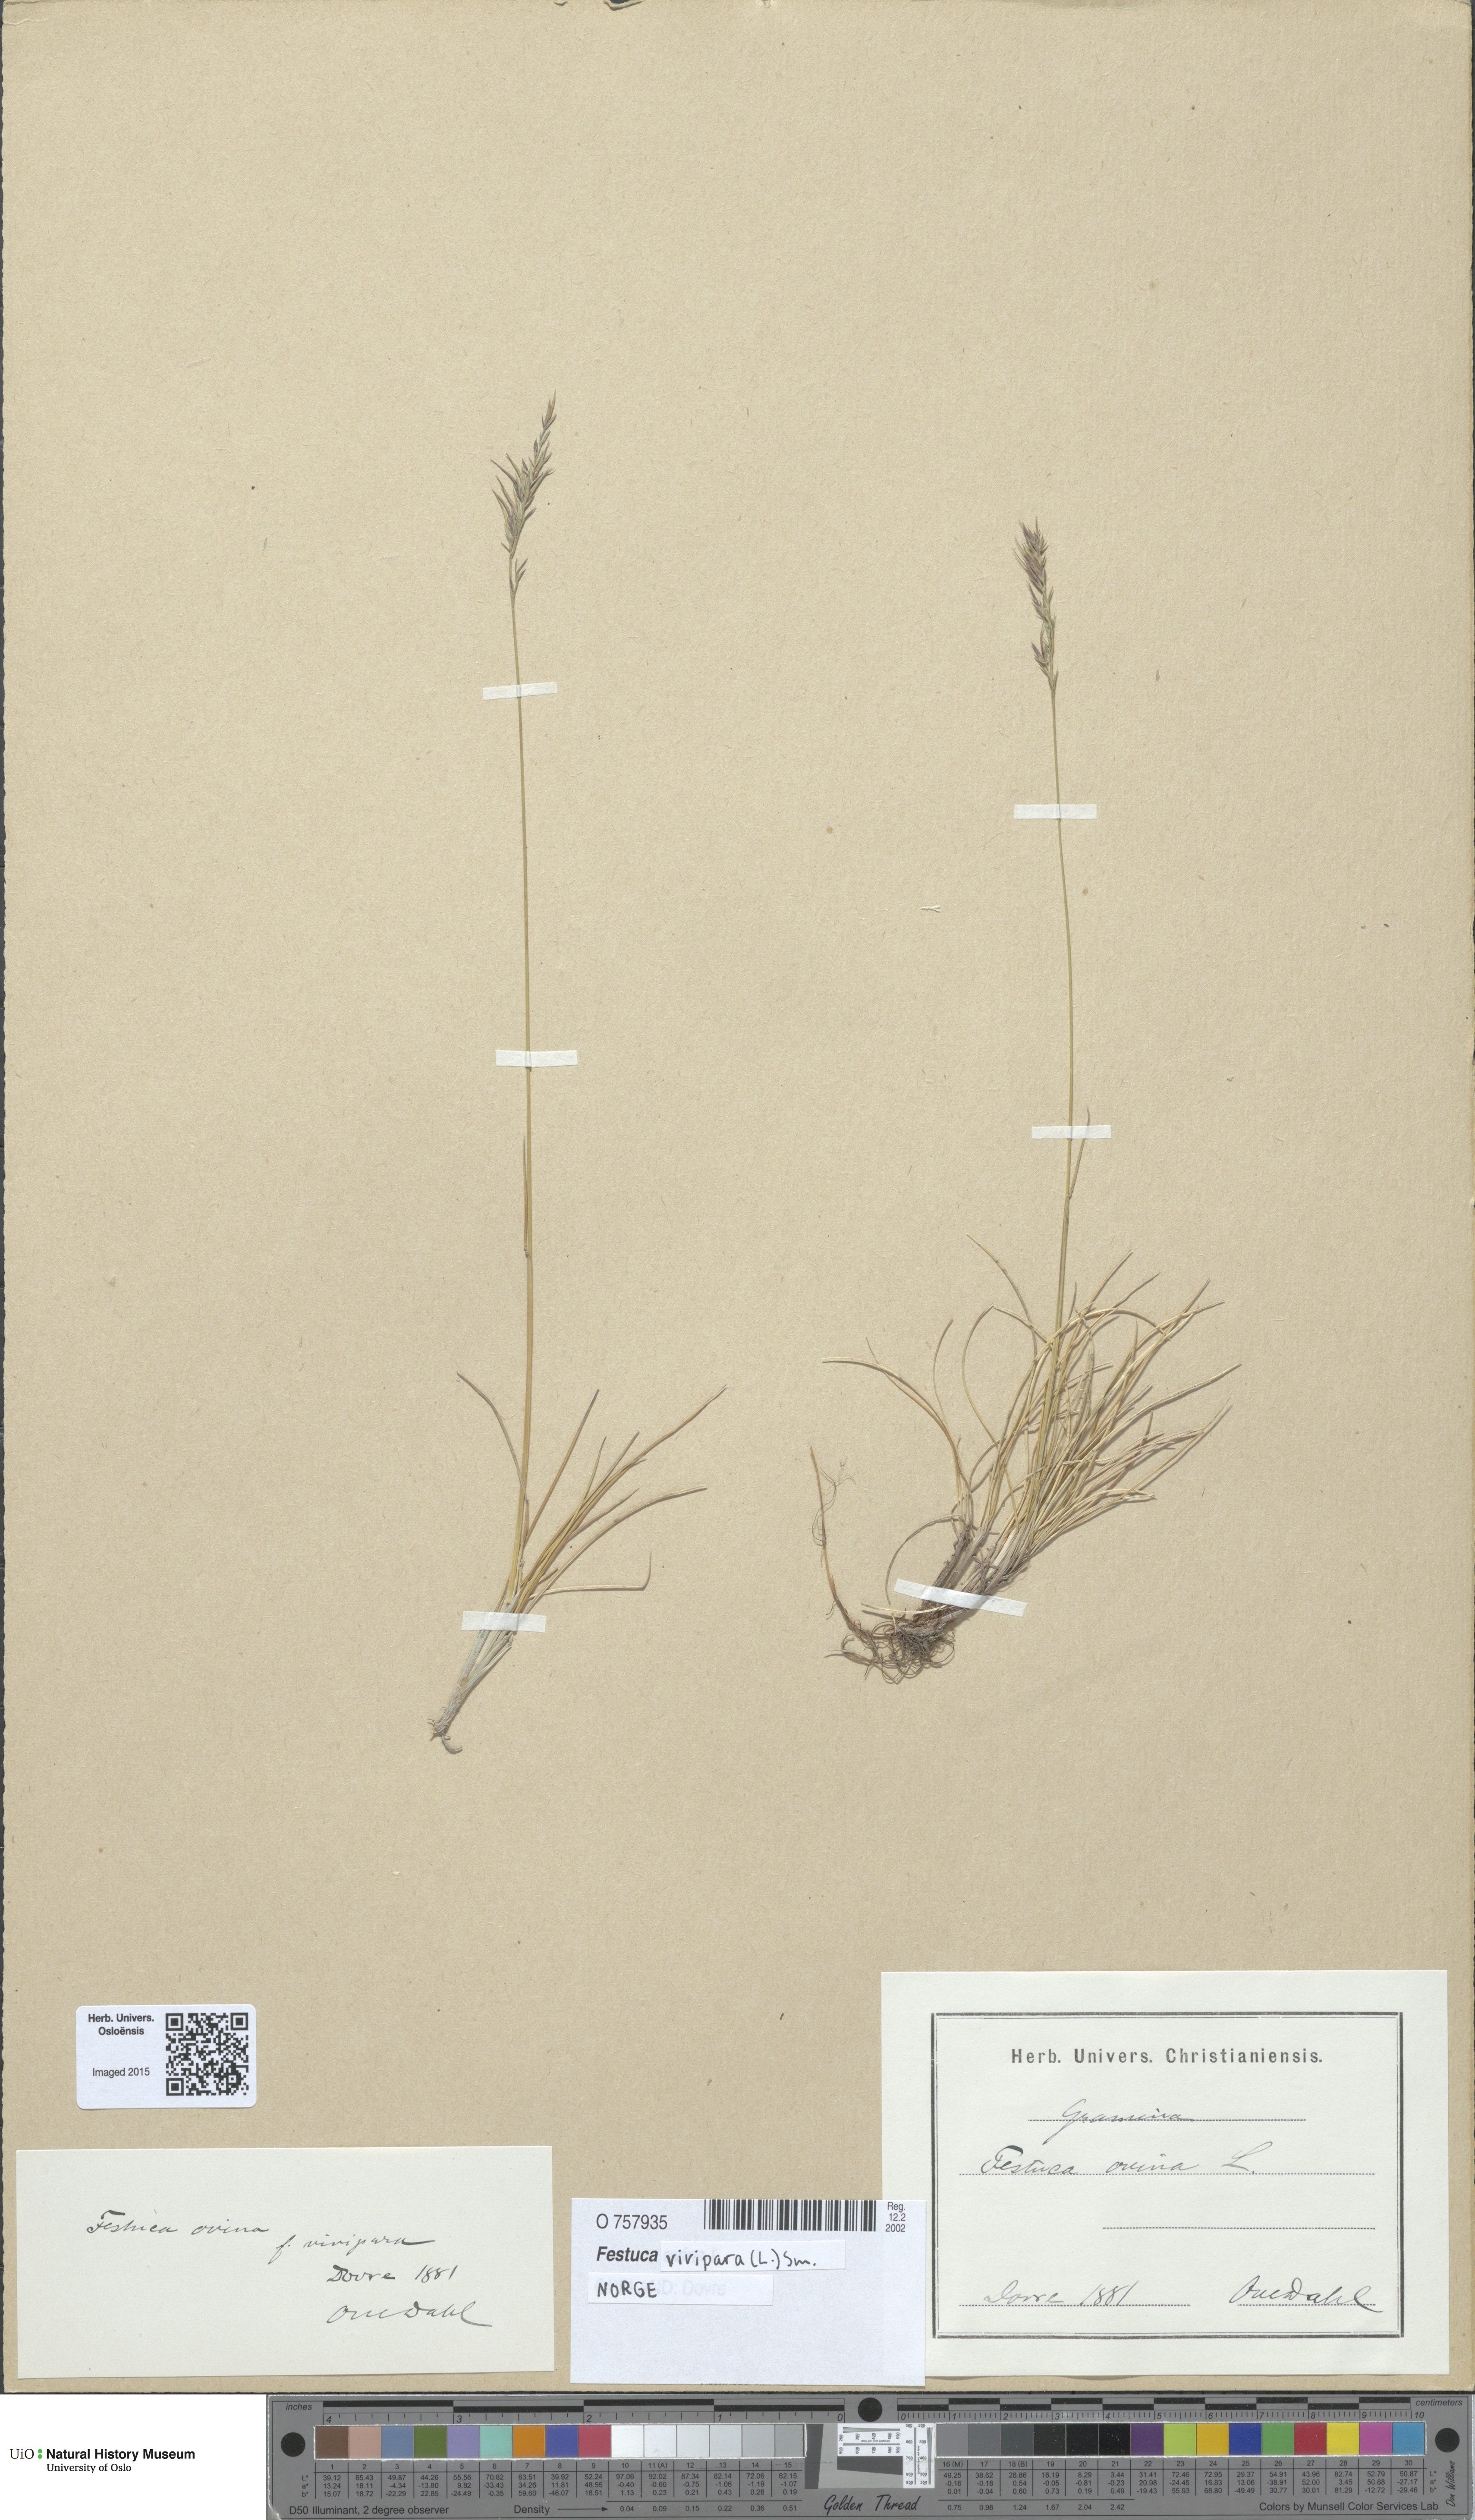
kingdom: Plantae
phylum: Tracheophyta
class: Liliopsida
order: Poales
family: Poaceae
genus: Festuca
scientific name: Festuca vivipara
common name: Viviparous sheep's-fescue
